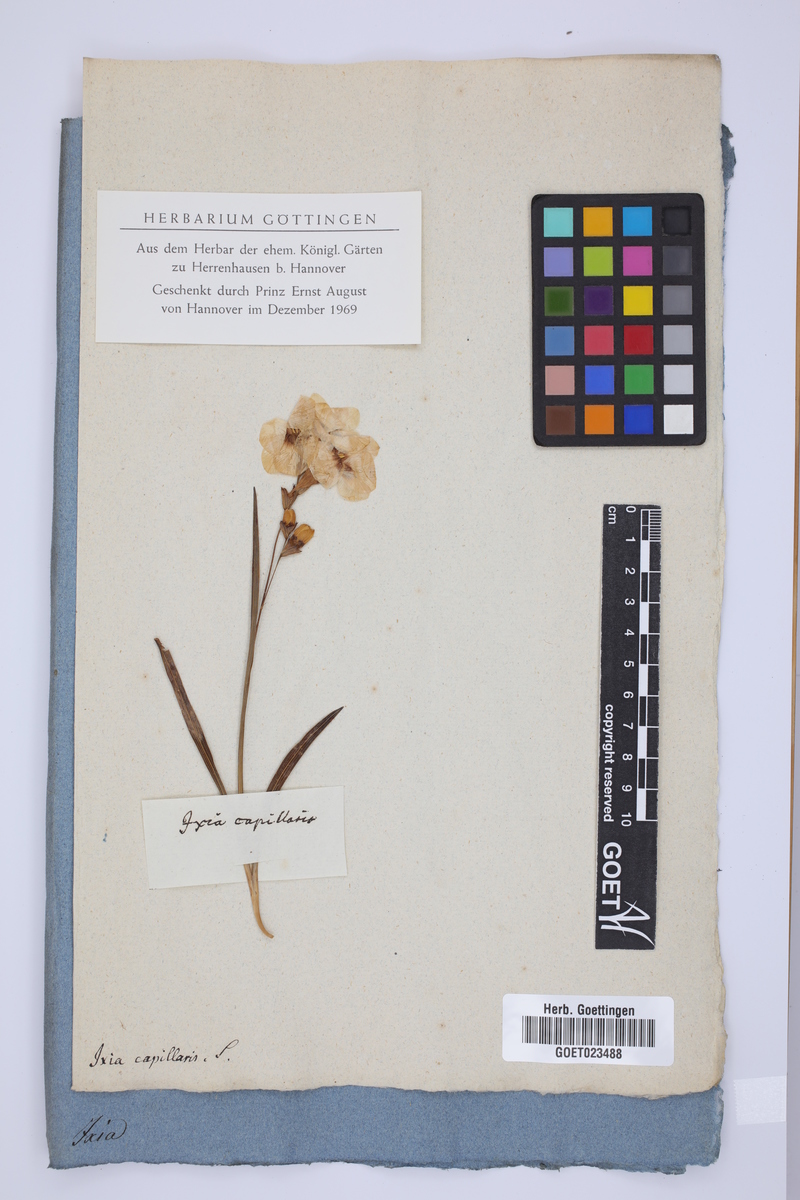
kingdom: Plantae
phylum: Tracheophyta
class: Liliopsida
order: Asparagales
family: Iridaceae
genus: Ixia
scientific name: Ixia capillaris
